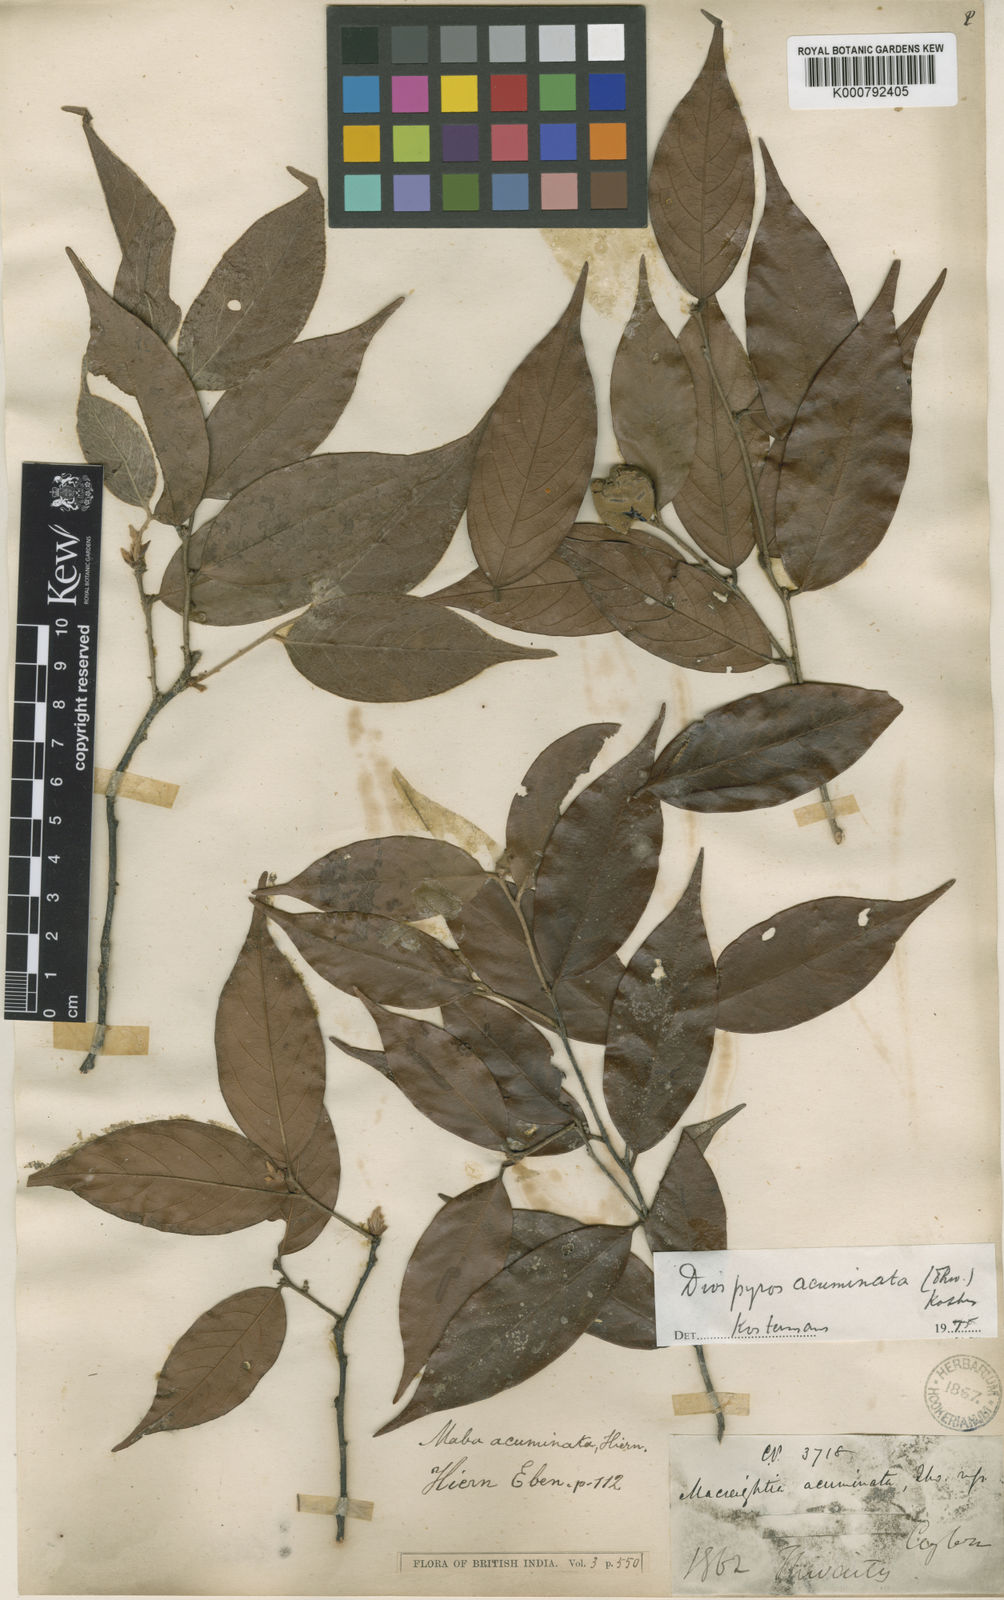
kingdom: Plantae
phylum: Tracheophyta
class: Magnoliopsida
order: Ericales
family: Ebenaceae
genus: Diospyros
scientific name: Diospyros acuminata
